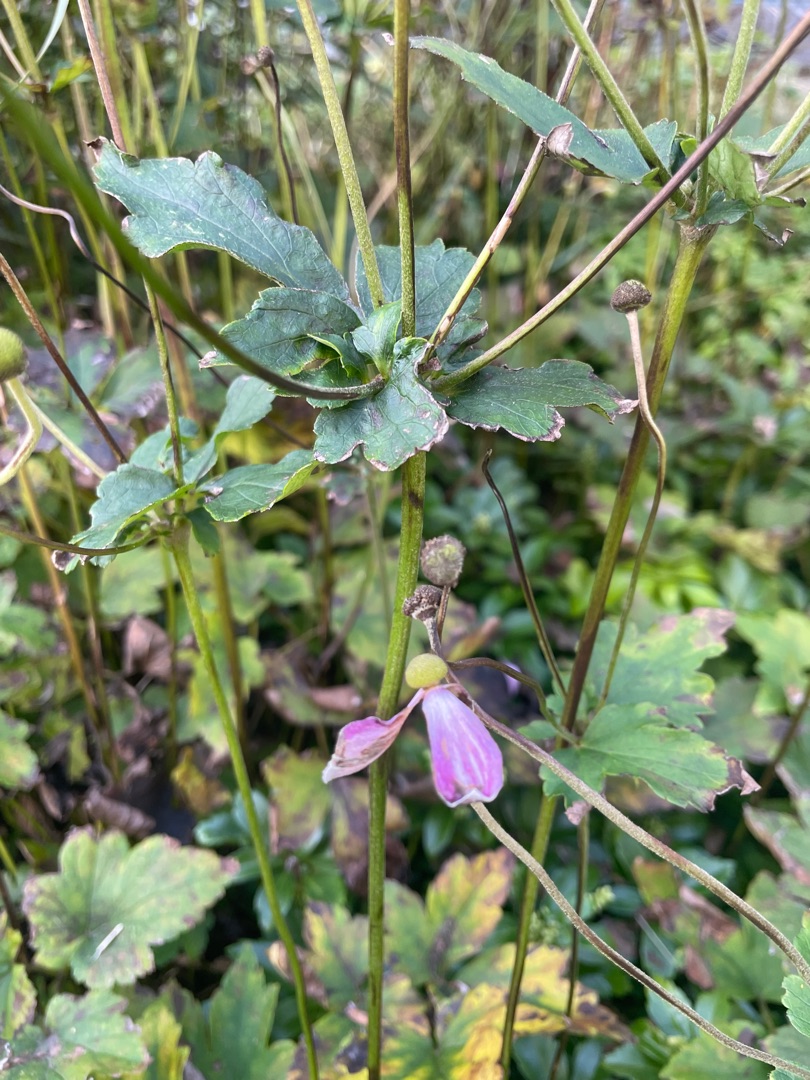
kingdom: Plantae
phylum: Tracheophyta
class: Magnoliopsida
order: Ranunculales
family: Ranunculaceae
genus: Eriocapitella
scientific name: Eriocapitella hupehensis
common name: Høst-anemone
